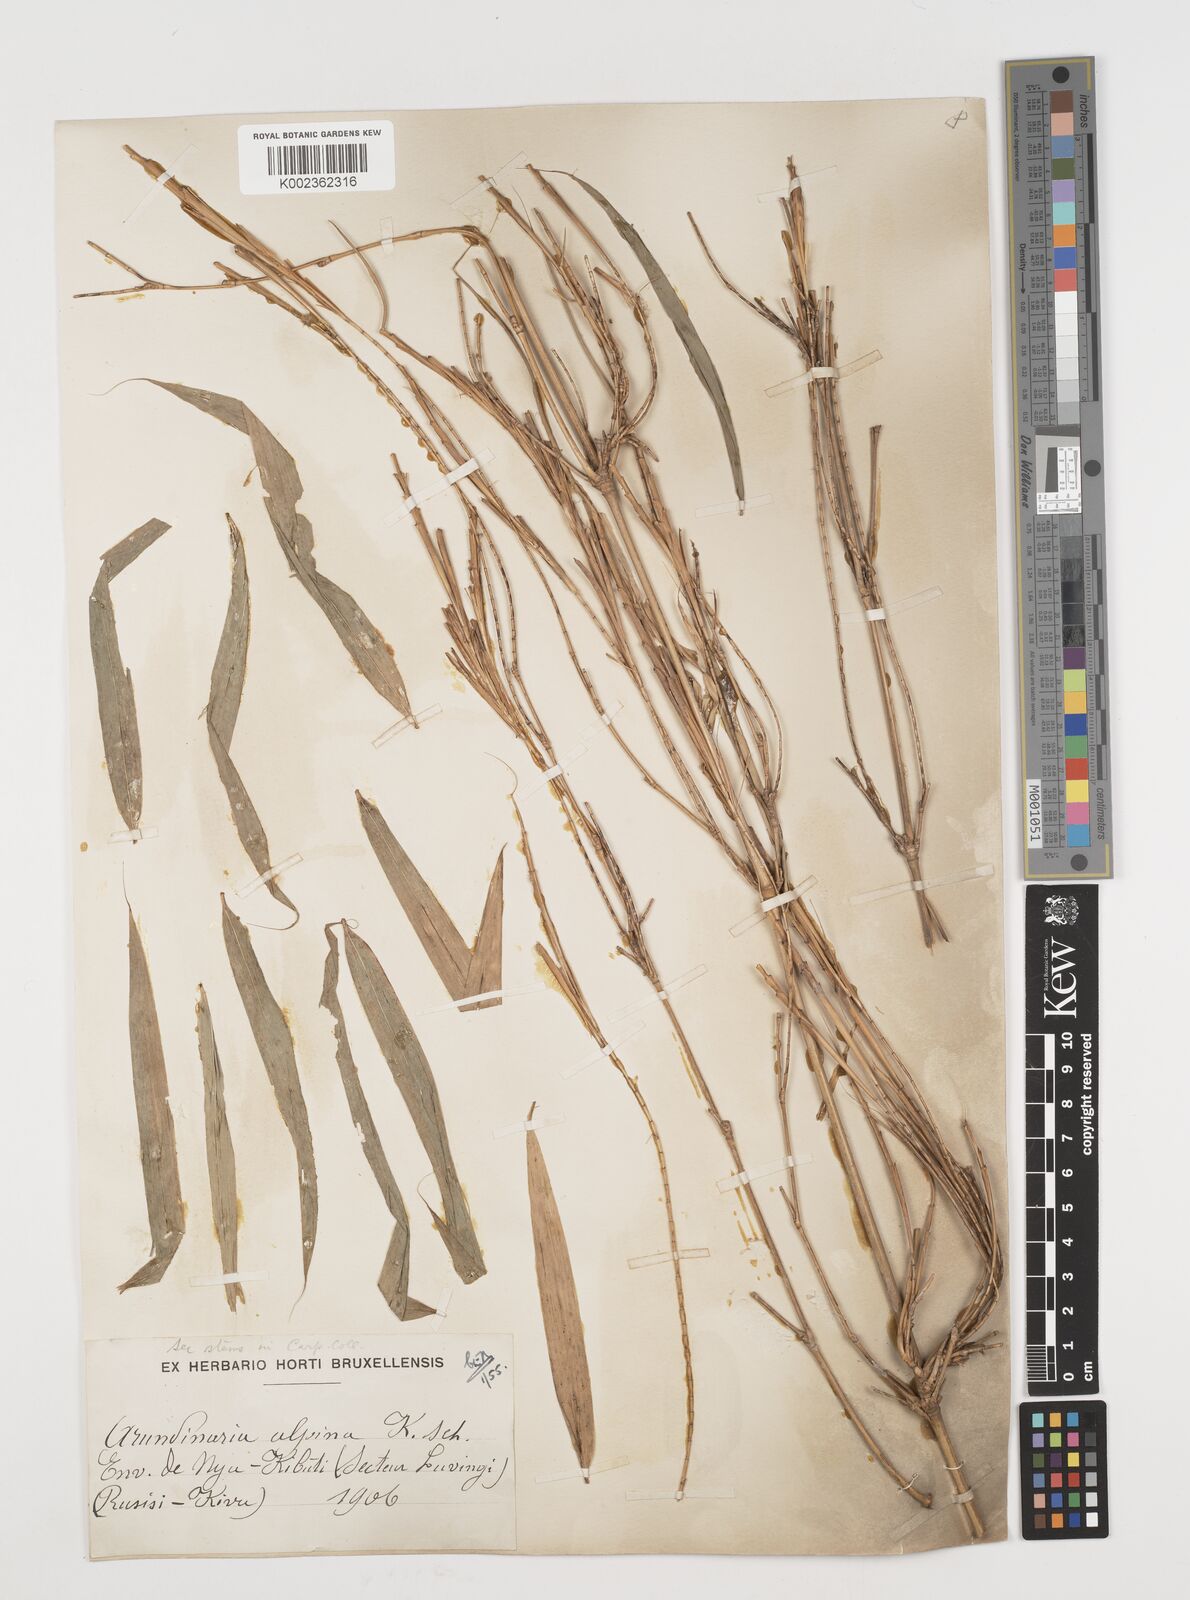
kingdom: Plantae
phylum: Tracheophyta
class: Liliopsida
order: Poales
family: Poaceae
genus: Oldeania
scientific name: Oldeania alpina
